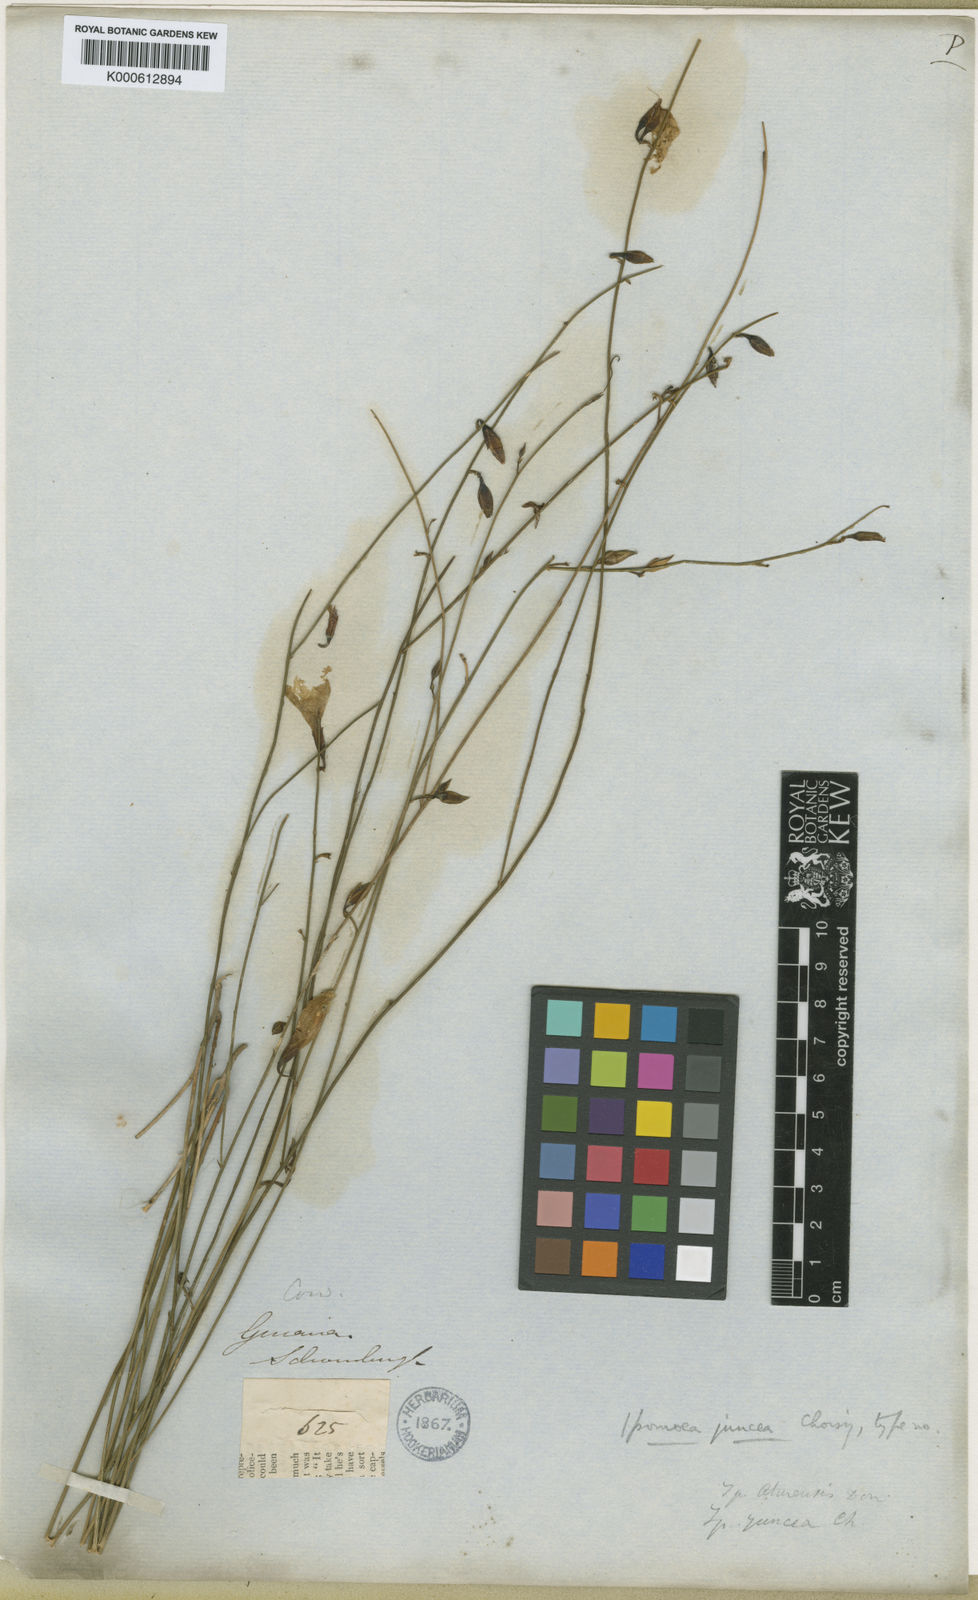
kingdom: Plantae
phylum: Tracheophyta
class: Magnoliopsida
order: Solanales
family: Convolvulaceae
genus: Distimake
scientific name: Distimake aturensis
